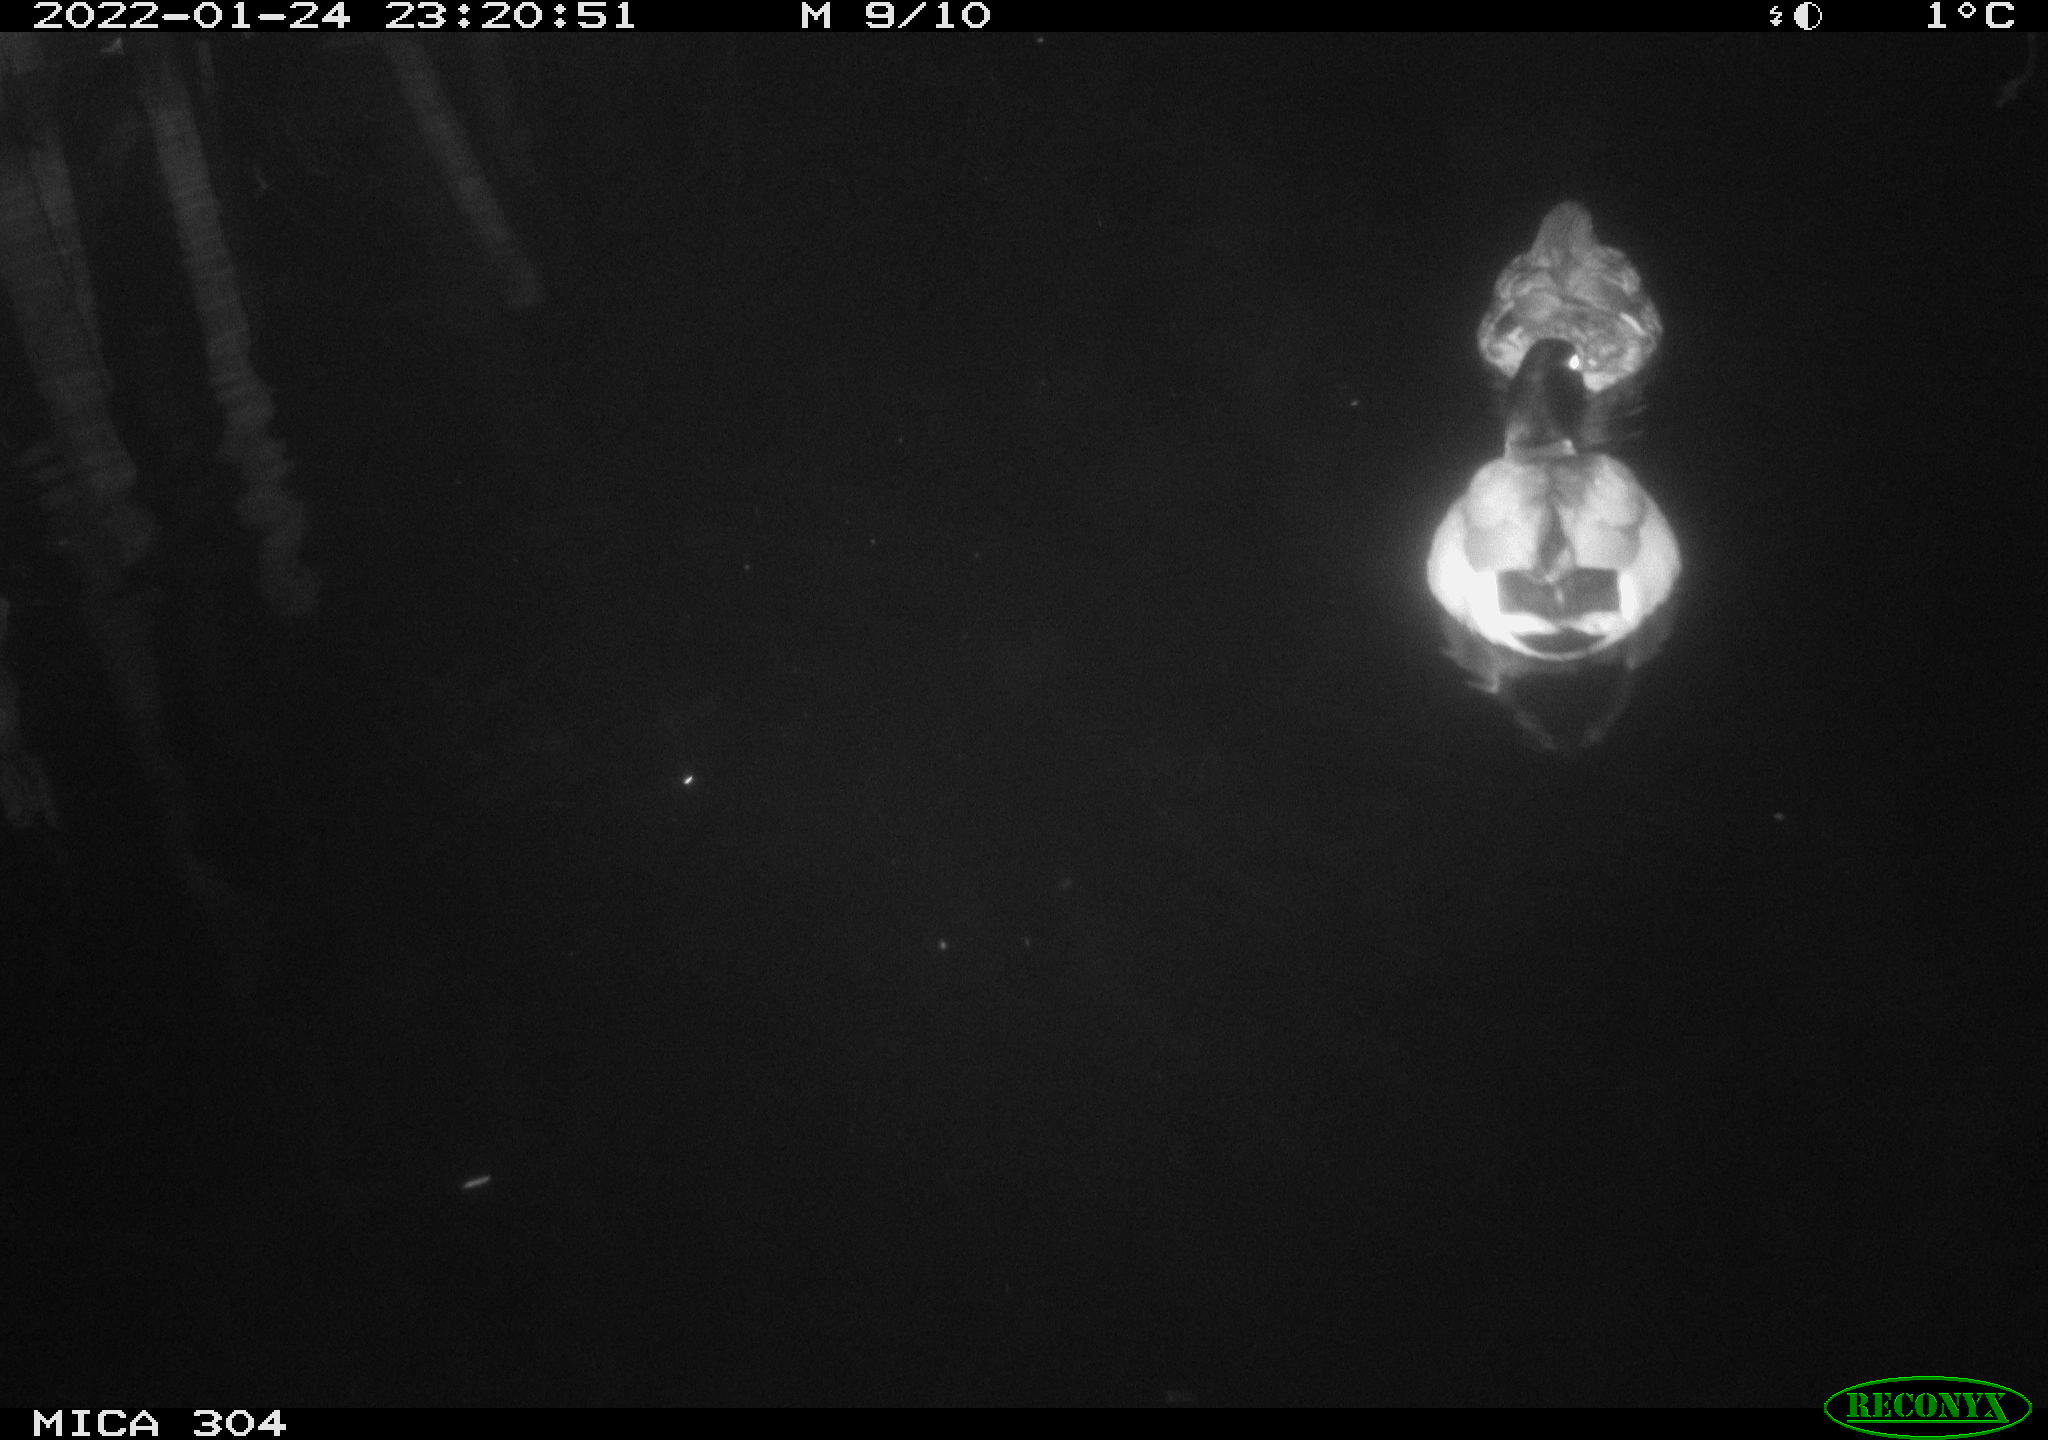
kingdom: Animalia
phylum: Chordata
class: Aves
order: Anseriformes
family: Anatidae
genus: Anas
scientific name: Anas
